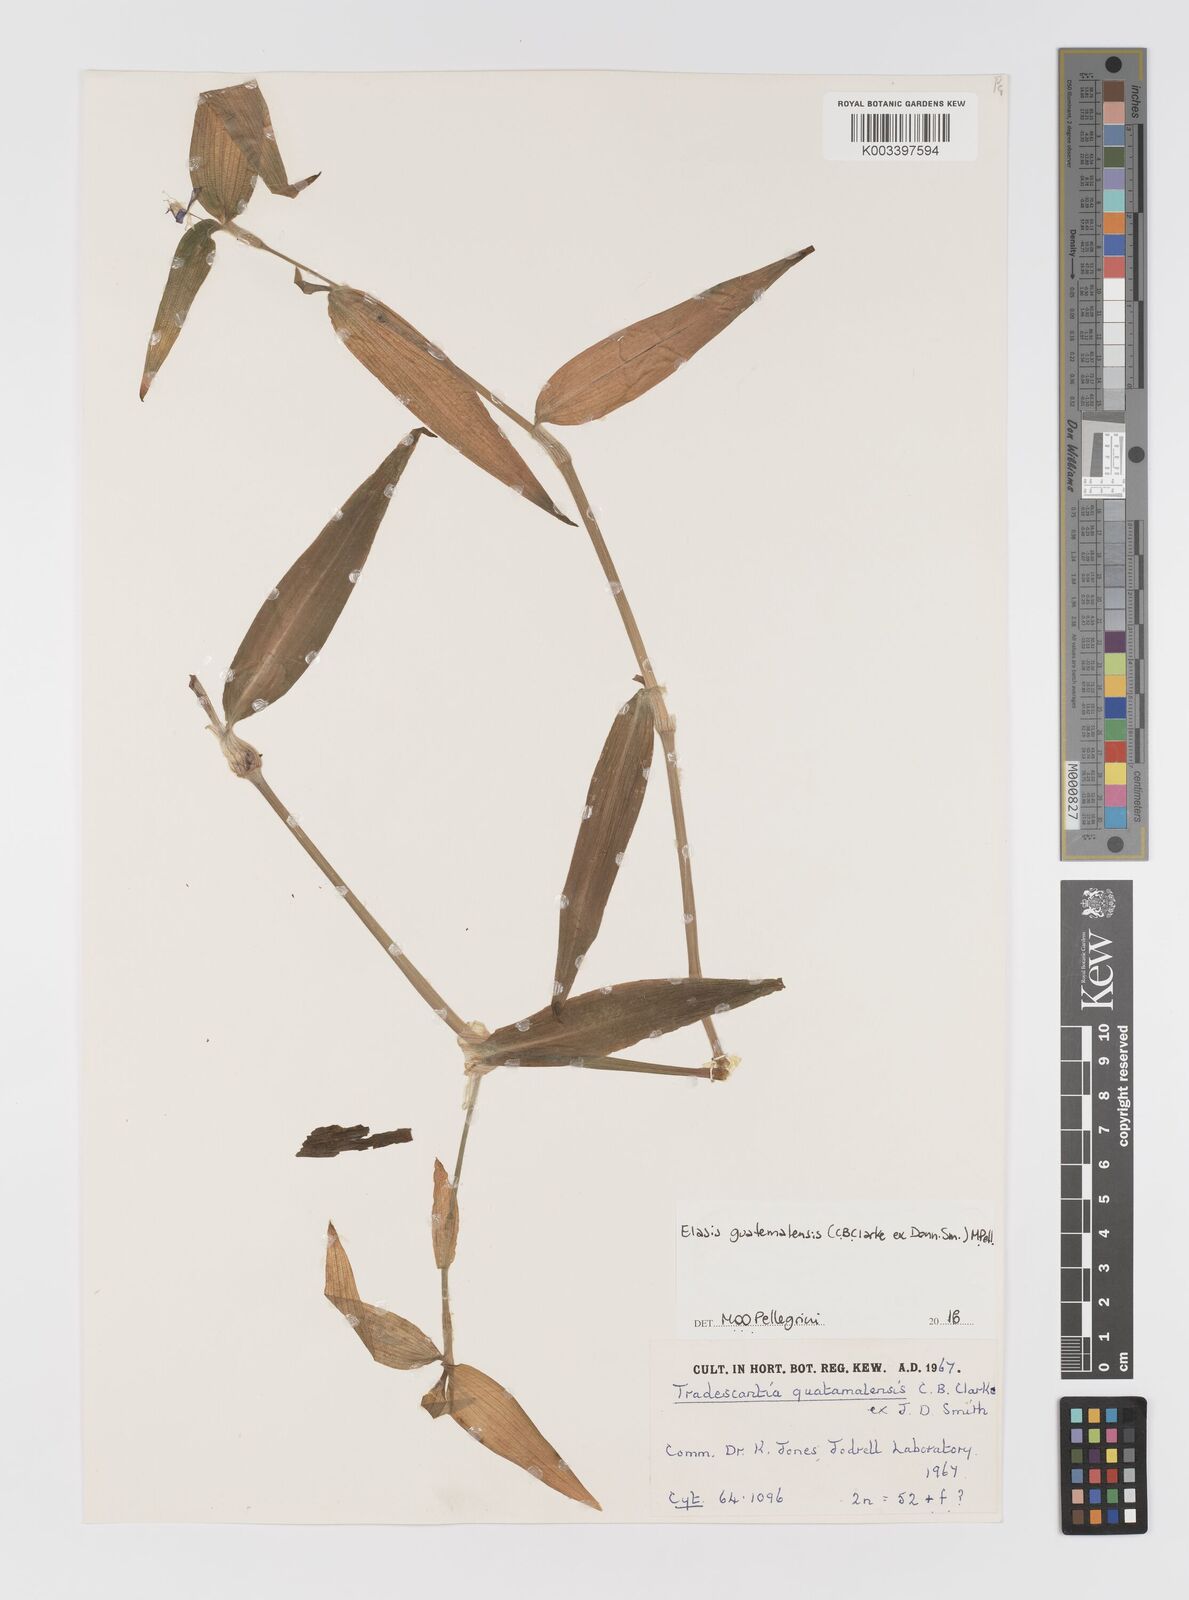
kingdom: Plantae
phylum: Tracheophyta
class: Liliopsida
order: Commelinales
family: Commelinaceae
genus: Elasis
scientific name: Elasis guatemalensis
